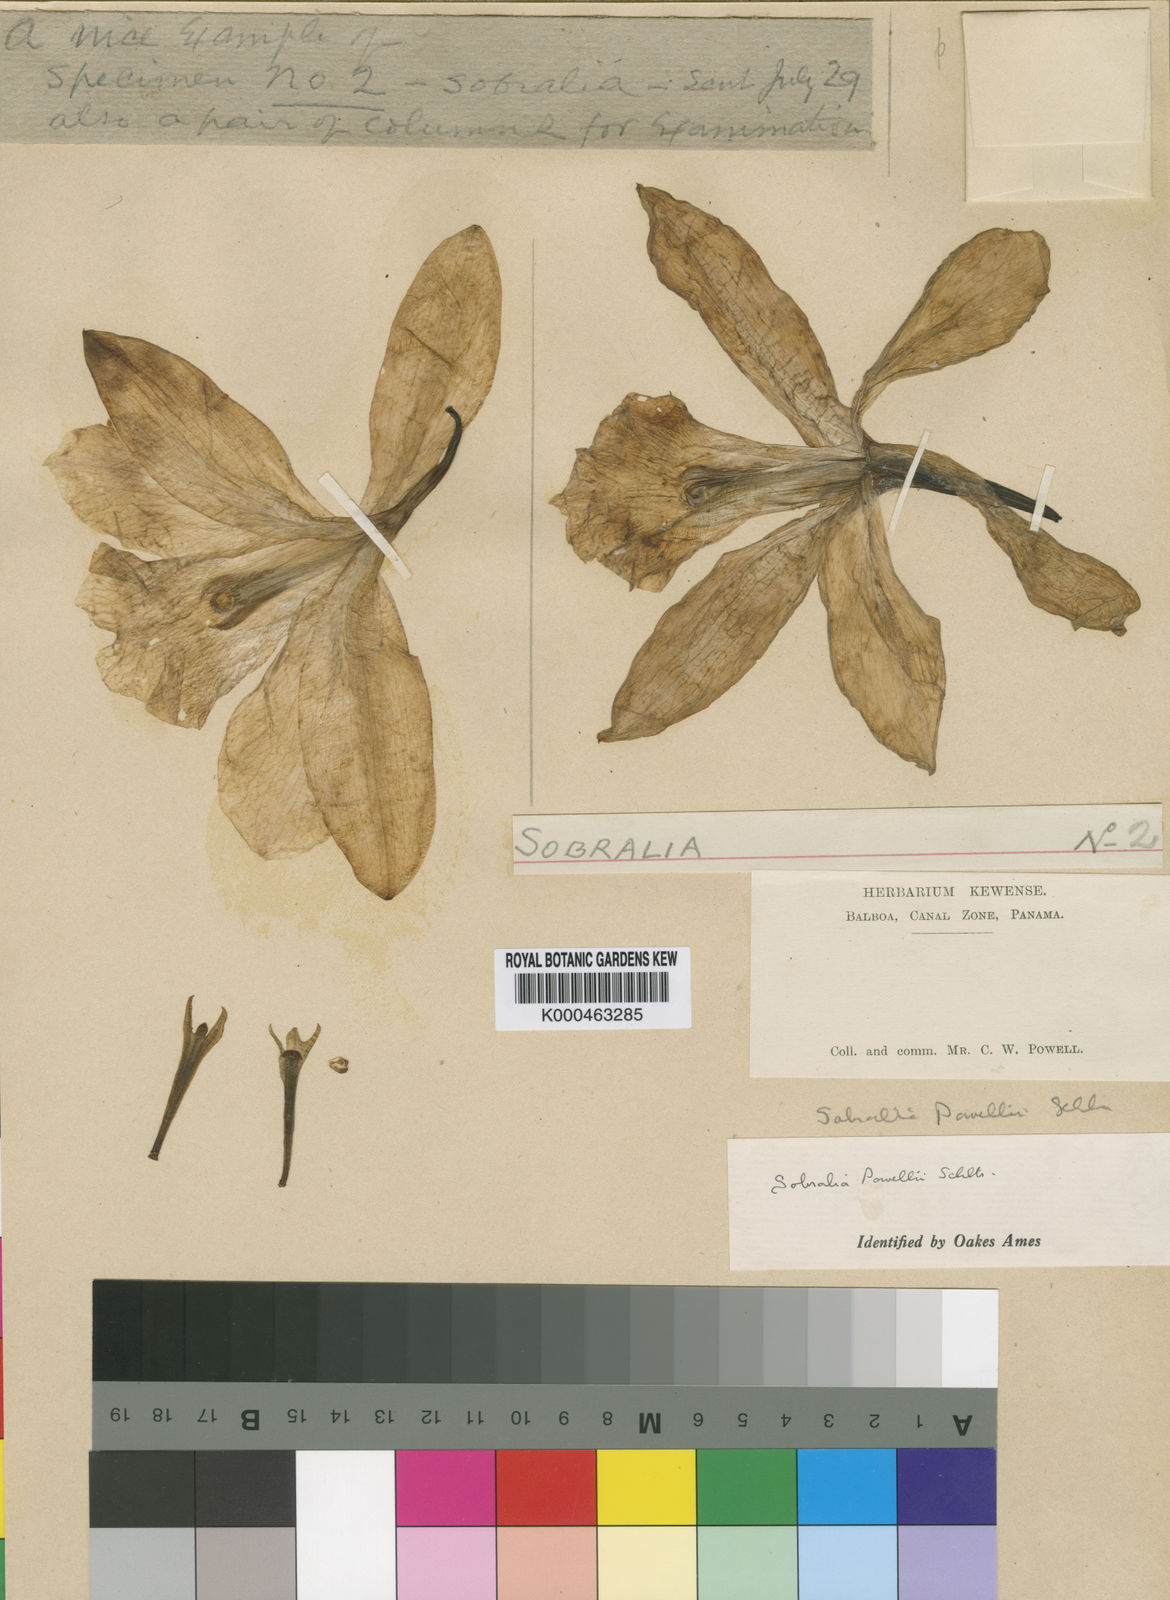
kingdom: Plantae
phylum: Tracheophyta
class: Liliopsida
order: Asparagales
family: Orchidaceae
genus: Sobralia
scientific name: Sobralia powellii
